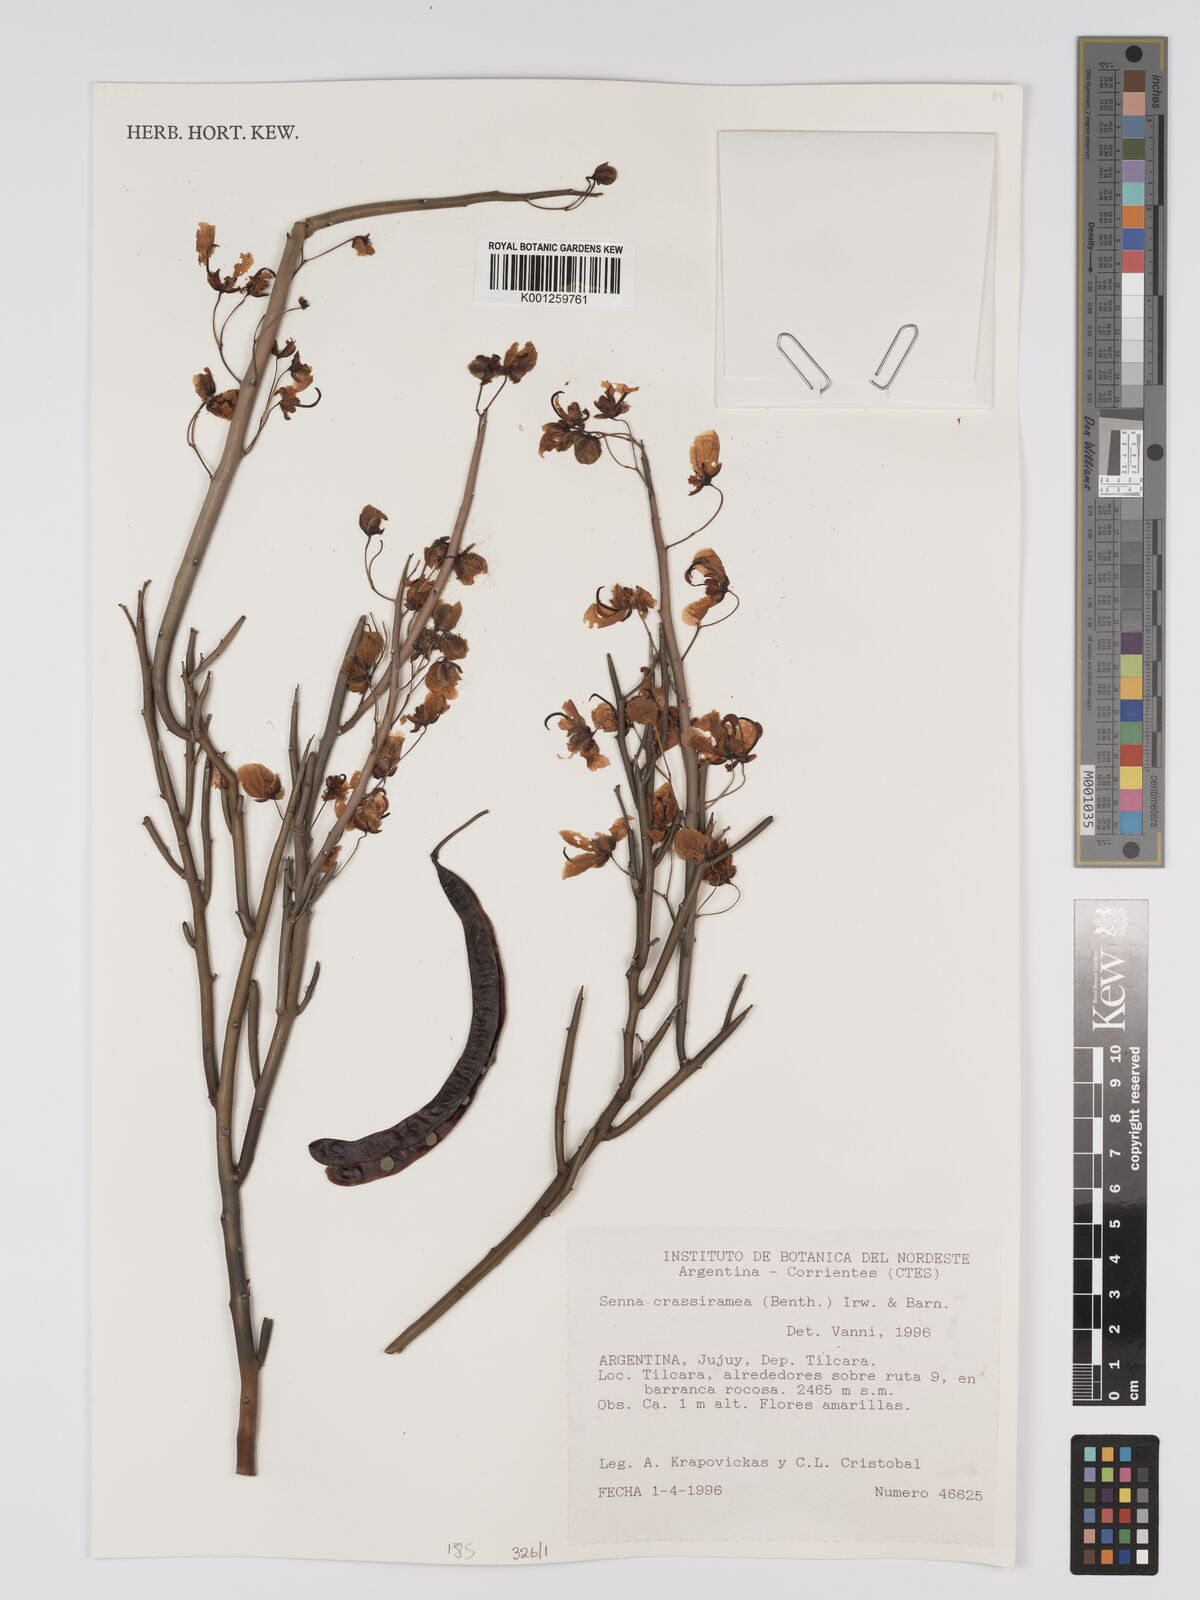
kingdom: Plantae
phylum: Tracheophyta
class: Magnoliopsida
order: Fabales
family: Fabaceae
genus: Senna
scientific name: Senna crassiramea
